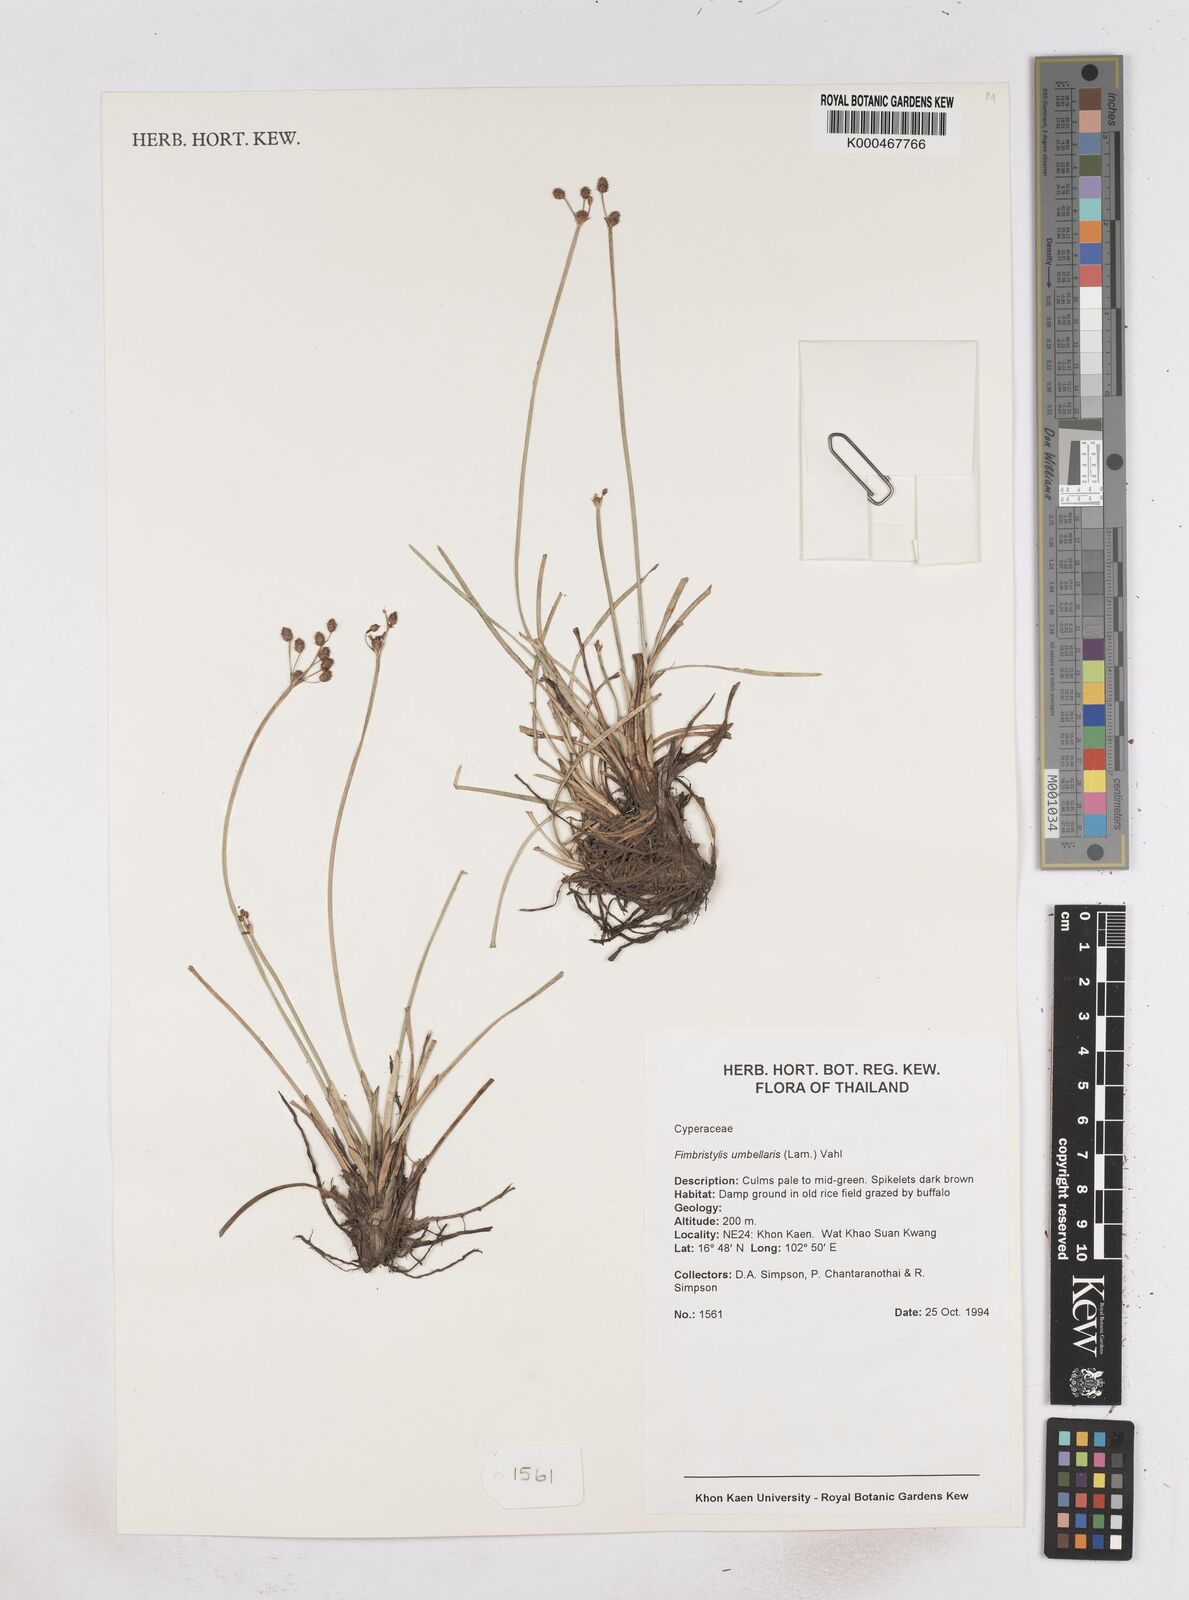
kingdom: Plantae
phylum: Tracheophyta
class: Liliopsida
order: Poales
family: Cyperaceae
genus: Fimbristylis
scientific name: Fimbristylis umbellaris
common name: Globular fimbristylis
